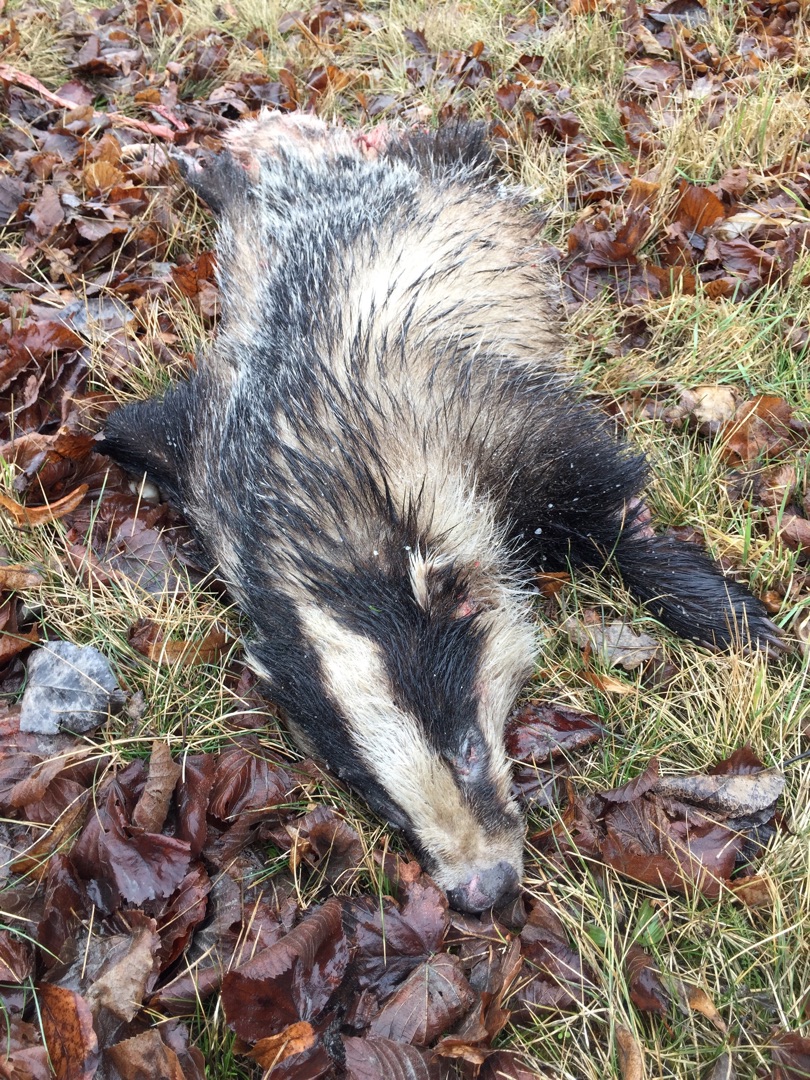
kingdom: Animalia
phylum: Chordata
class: Mammalia
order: Carnivora
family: Mustelidae
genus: Meles
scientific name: Meles meles
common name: Grævling
